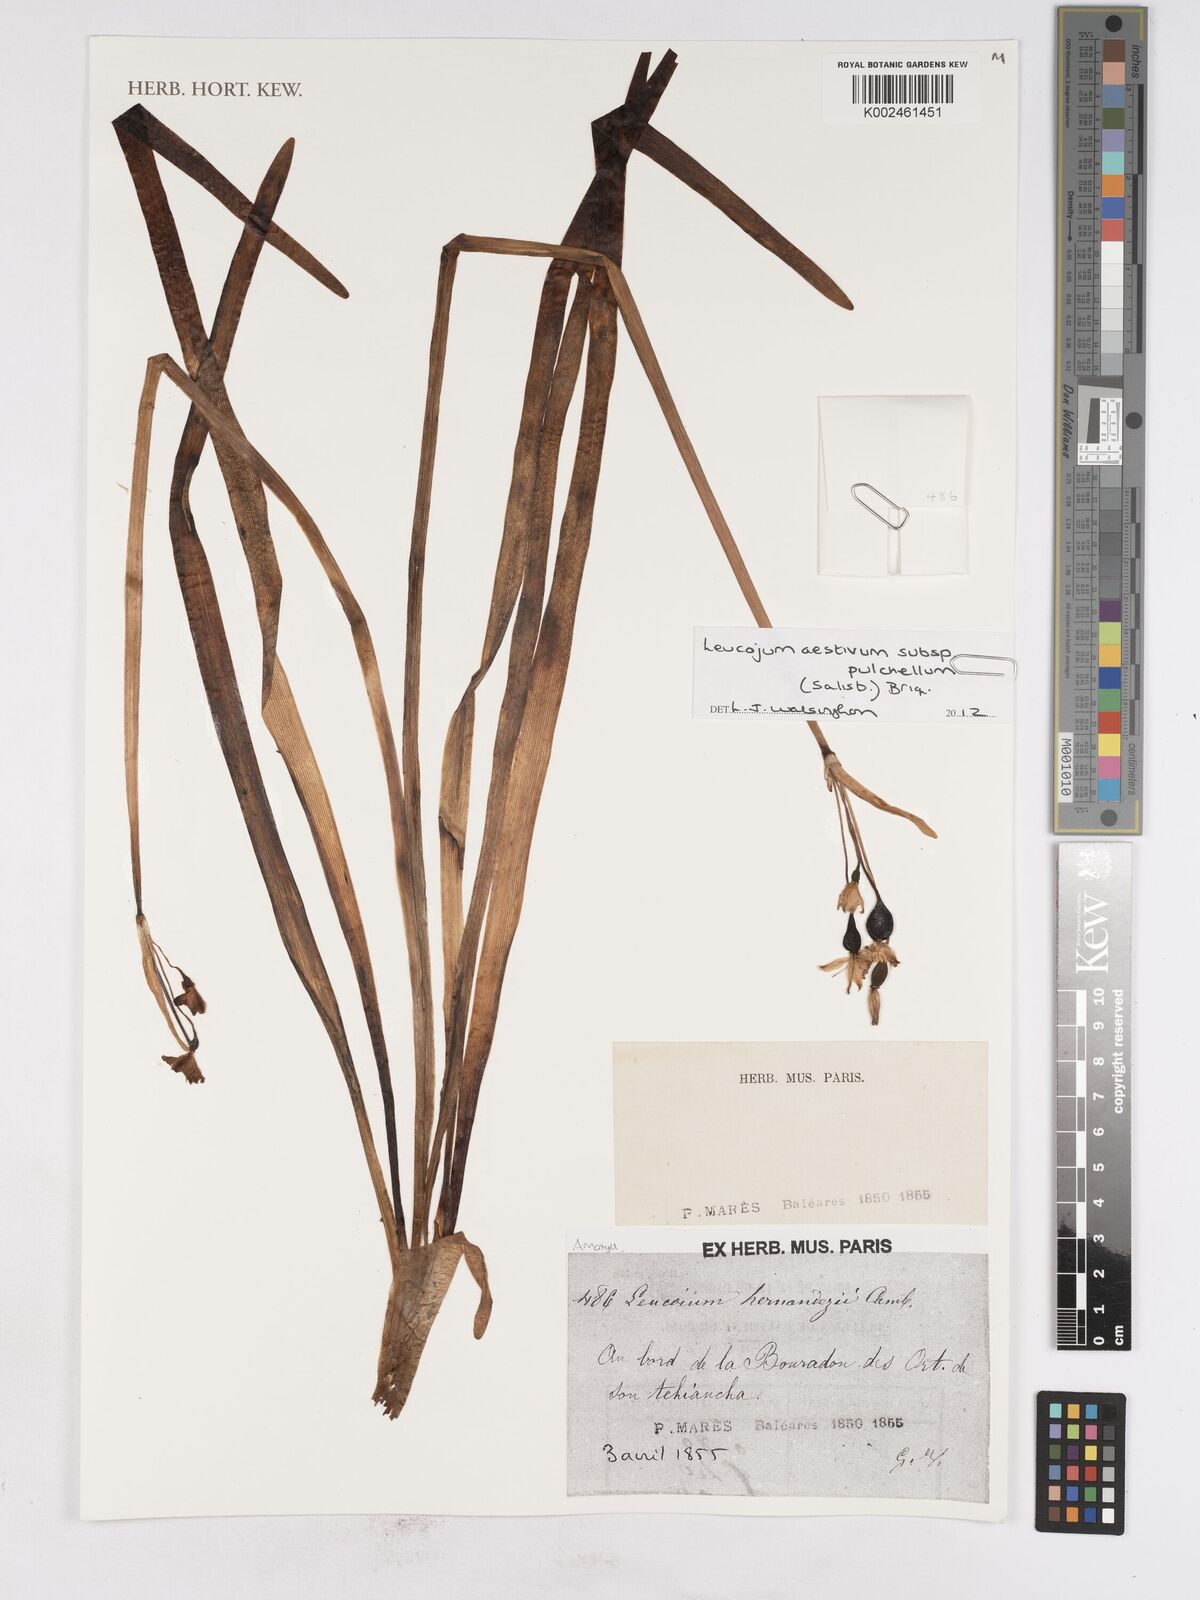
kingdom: Plantae
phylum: Tracheophyta
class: Liliopsida
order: Asparagales
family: Amaryllidaceae
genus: Leucojum
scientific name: Leucojum aestivum
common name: Summer snowflake
